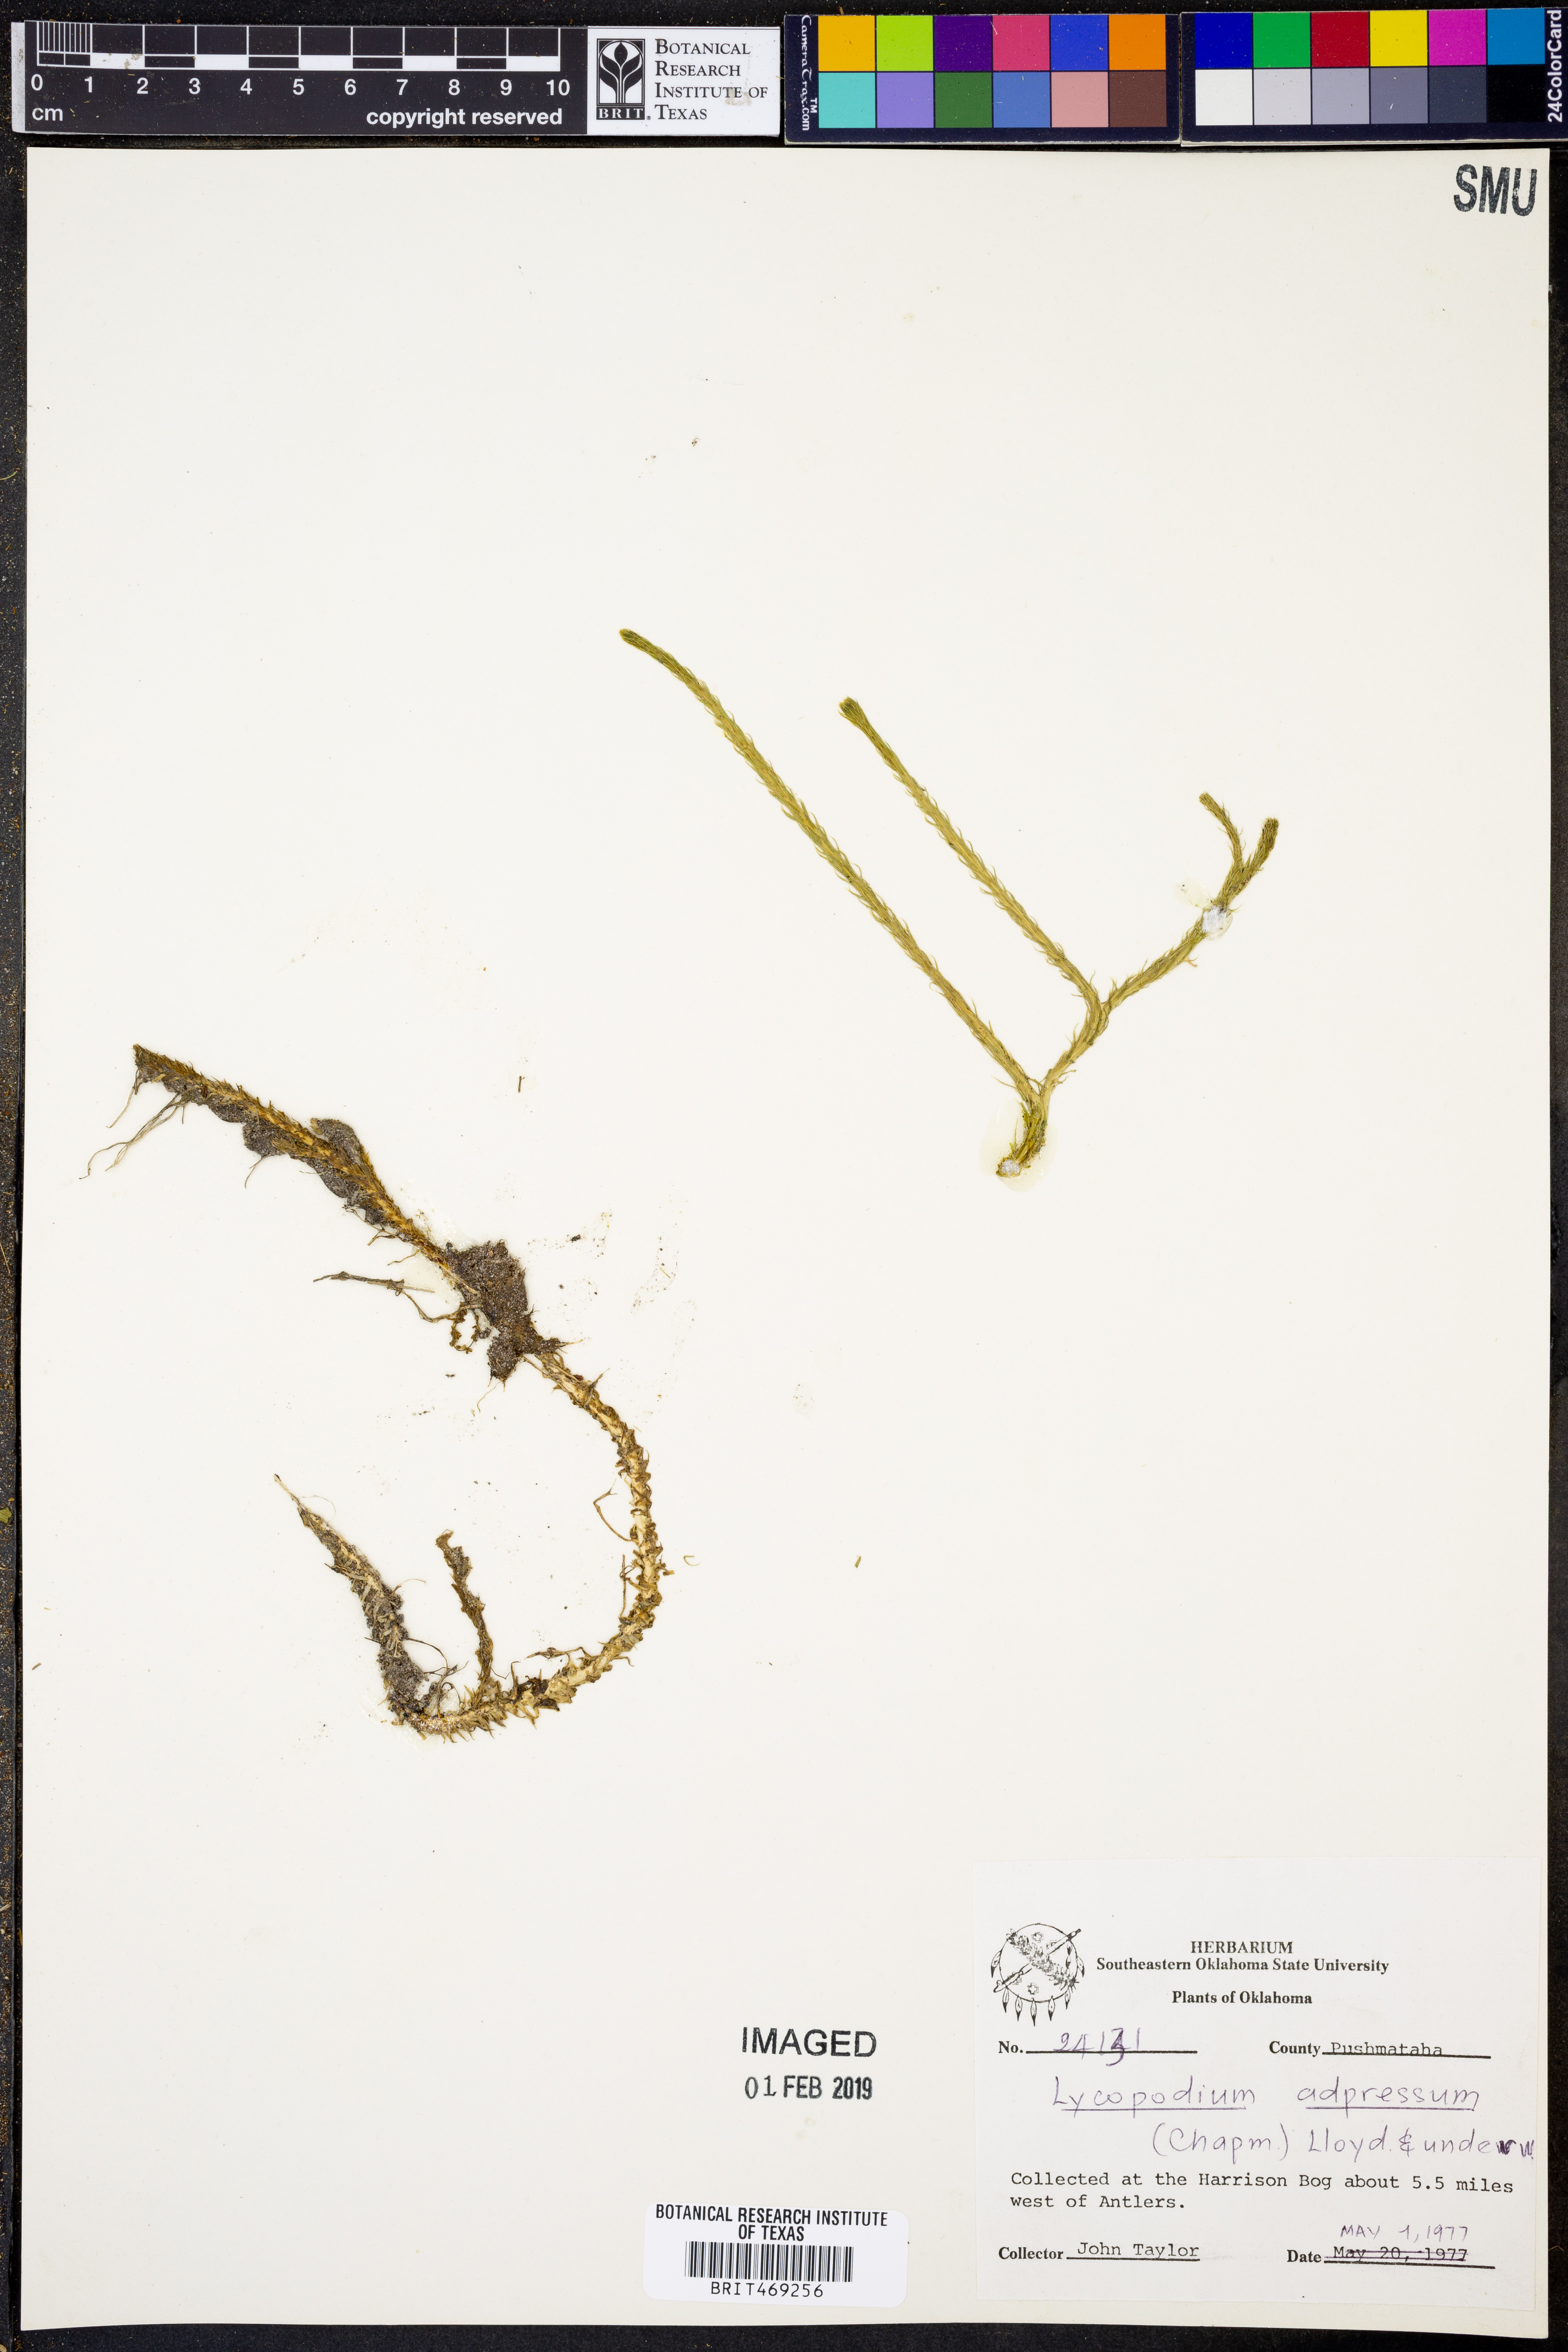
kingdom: Plantae
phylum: Tracheophyta
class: Lycopodiopsida
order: Lycopodiales
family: Lycopodiaceae
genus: Lycopodiella
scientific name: Lycopodiella appressa
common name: Appressed bog clubmoss
